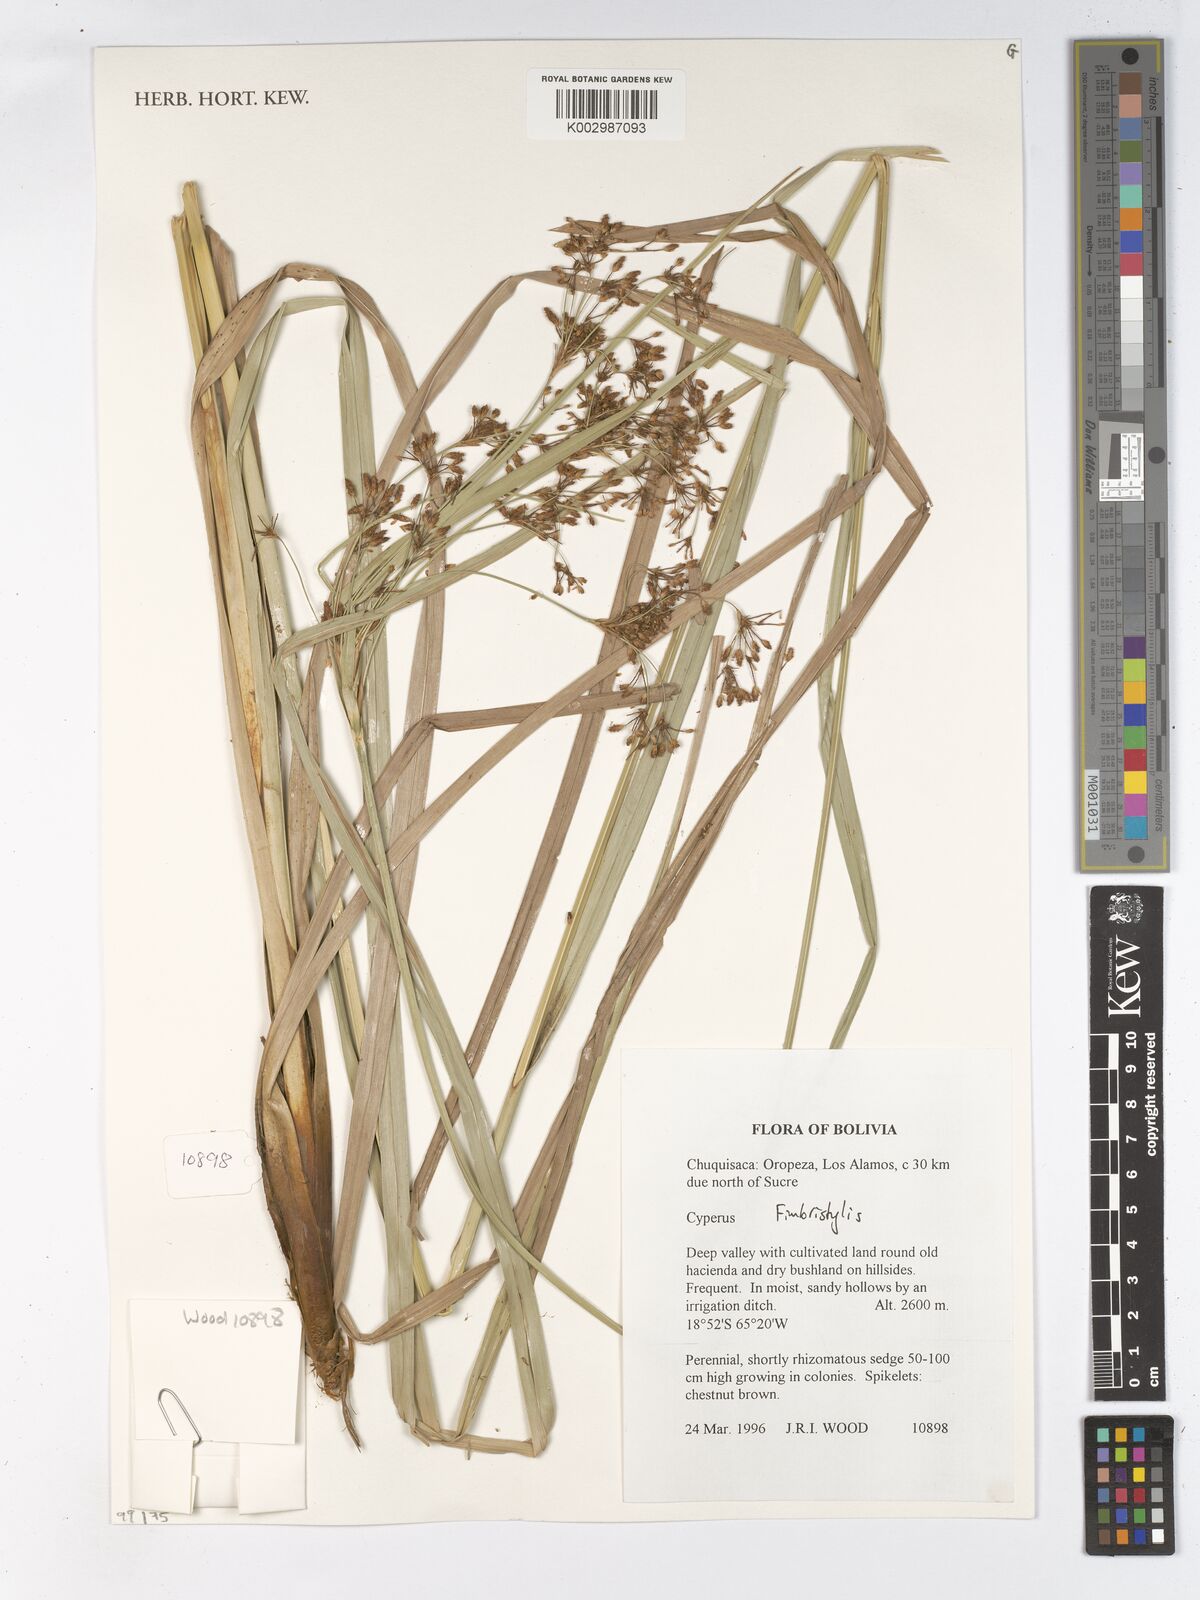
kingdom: Plantae
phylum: Tracheophyta
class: Liliopsida
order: Poales
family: Cyperaceae
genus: Fimbristylis
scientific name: Fimbristylis
